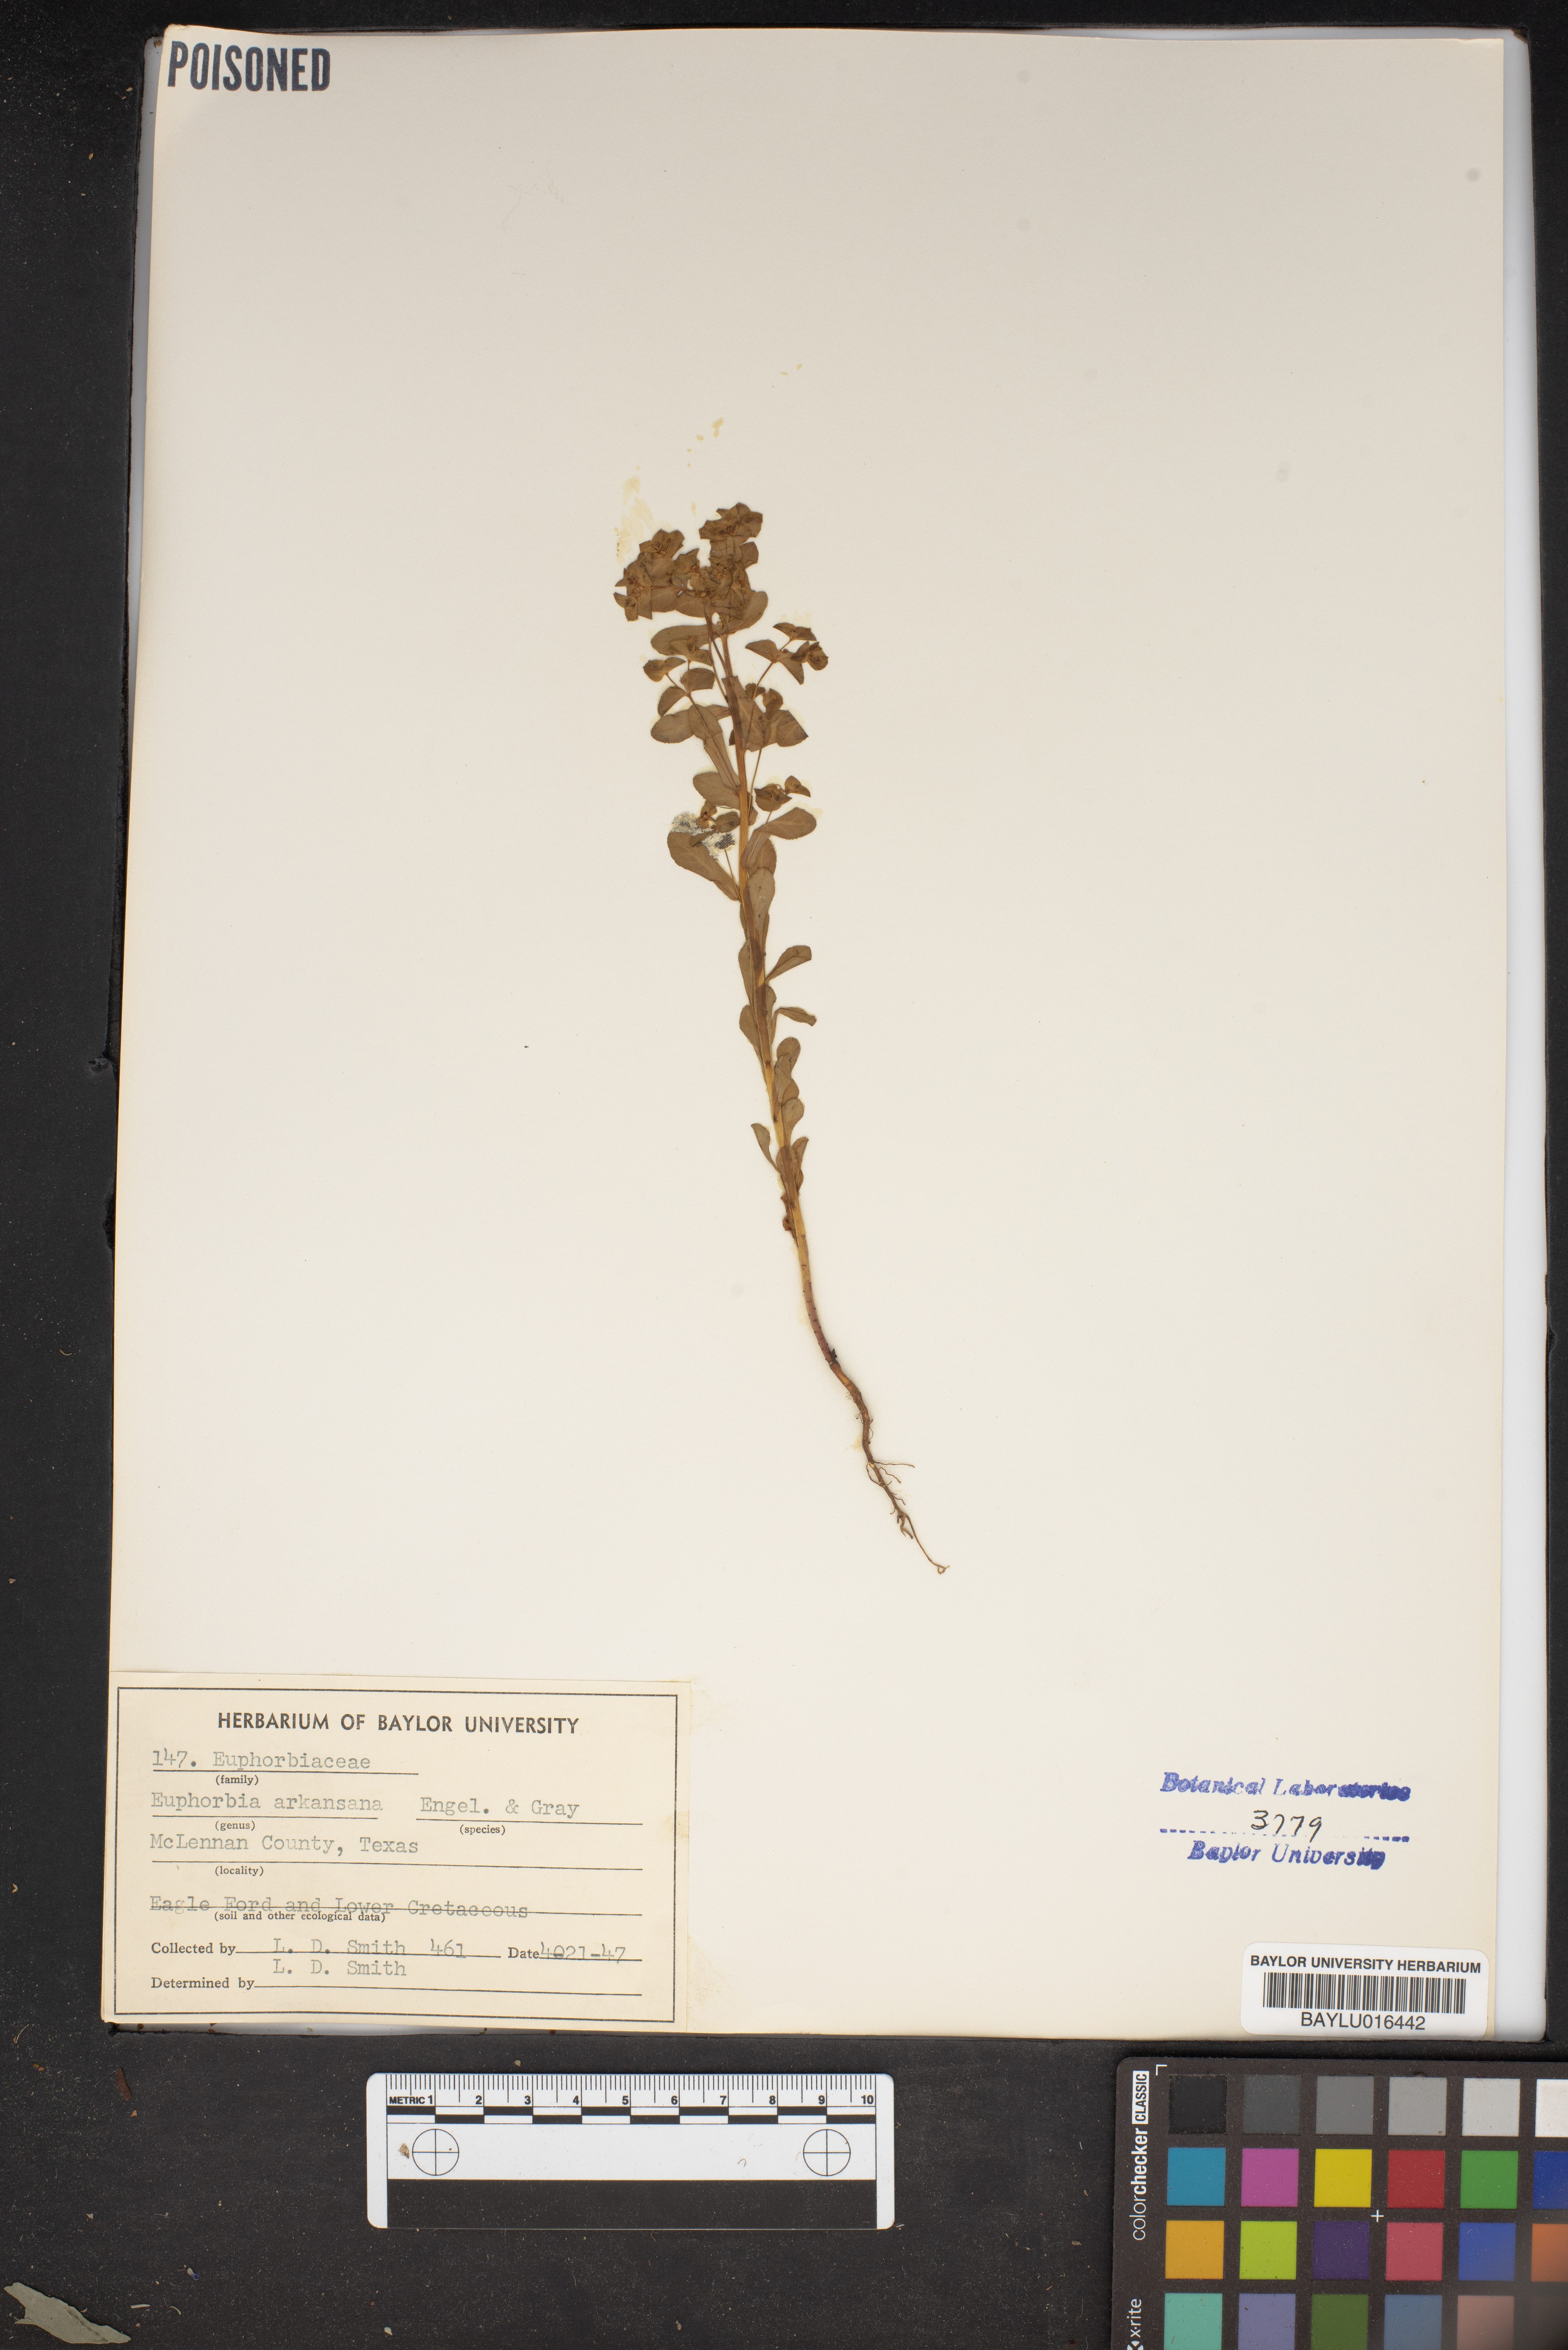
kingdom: Plantae
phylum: Tracheophyta
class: Magnoliopsida
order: Malpighiales
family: Euphorbiaceae
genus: Euphorbia
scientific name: Euphorbia spathulata
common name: Blunt spurge
